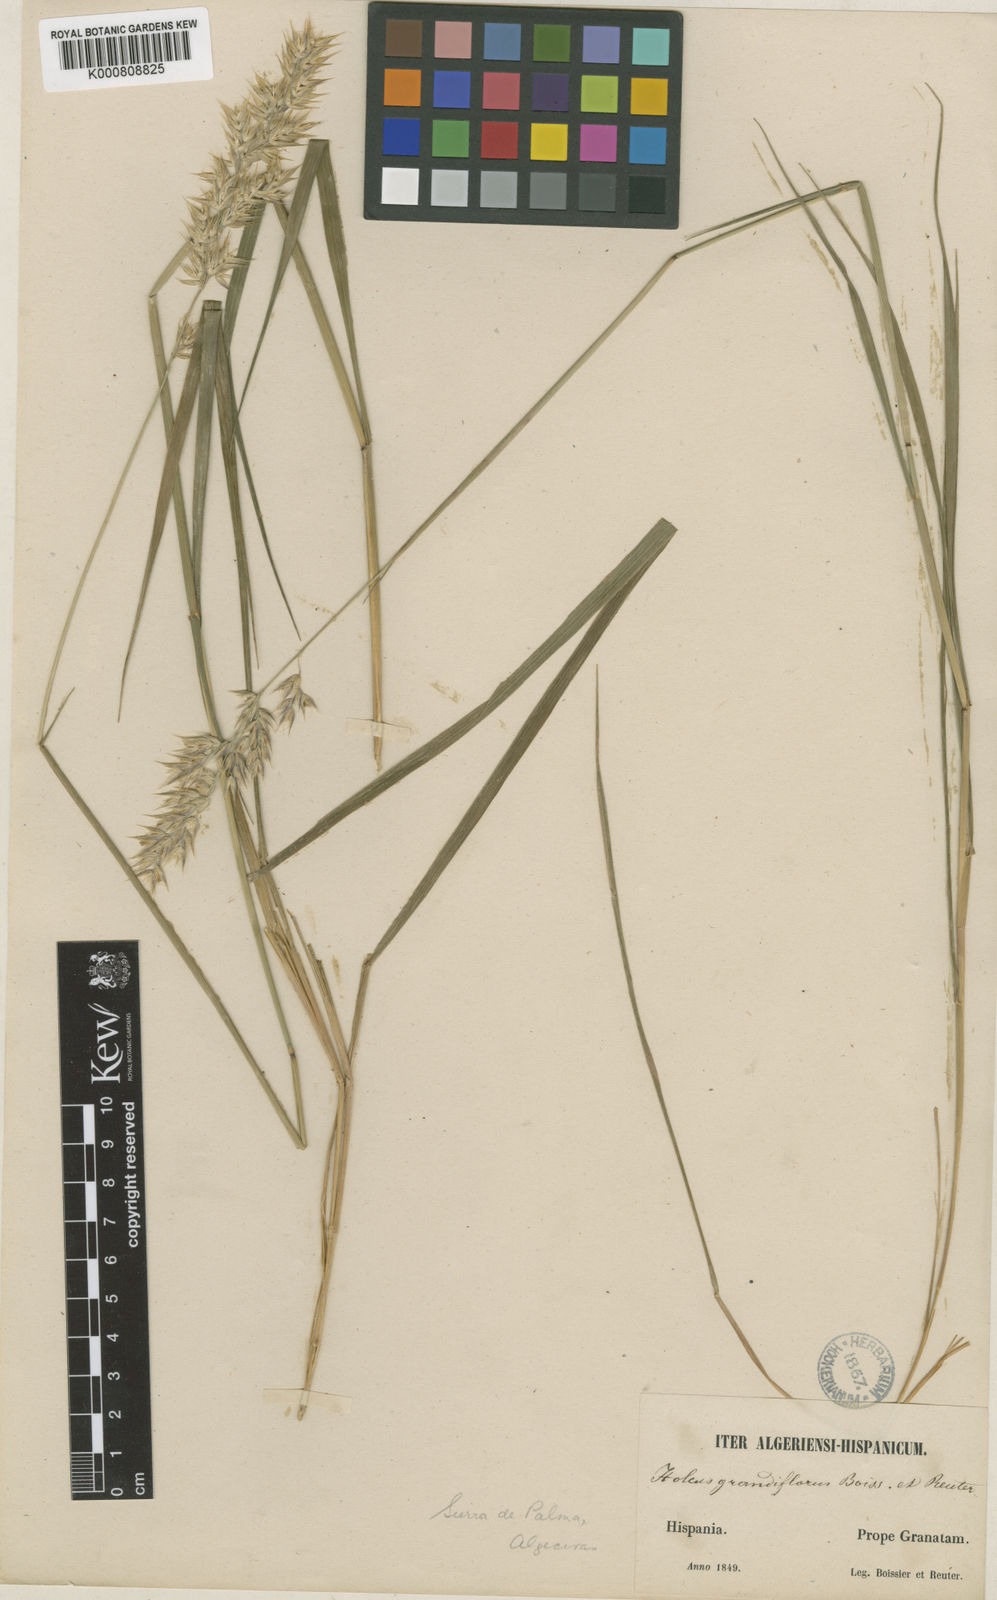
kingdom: Plantae
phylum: Tracheophyta
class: Liliopsida
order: Poales
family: Poaceae
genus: Holcus
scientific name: Holcus grandiflorus
